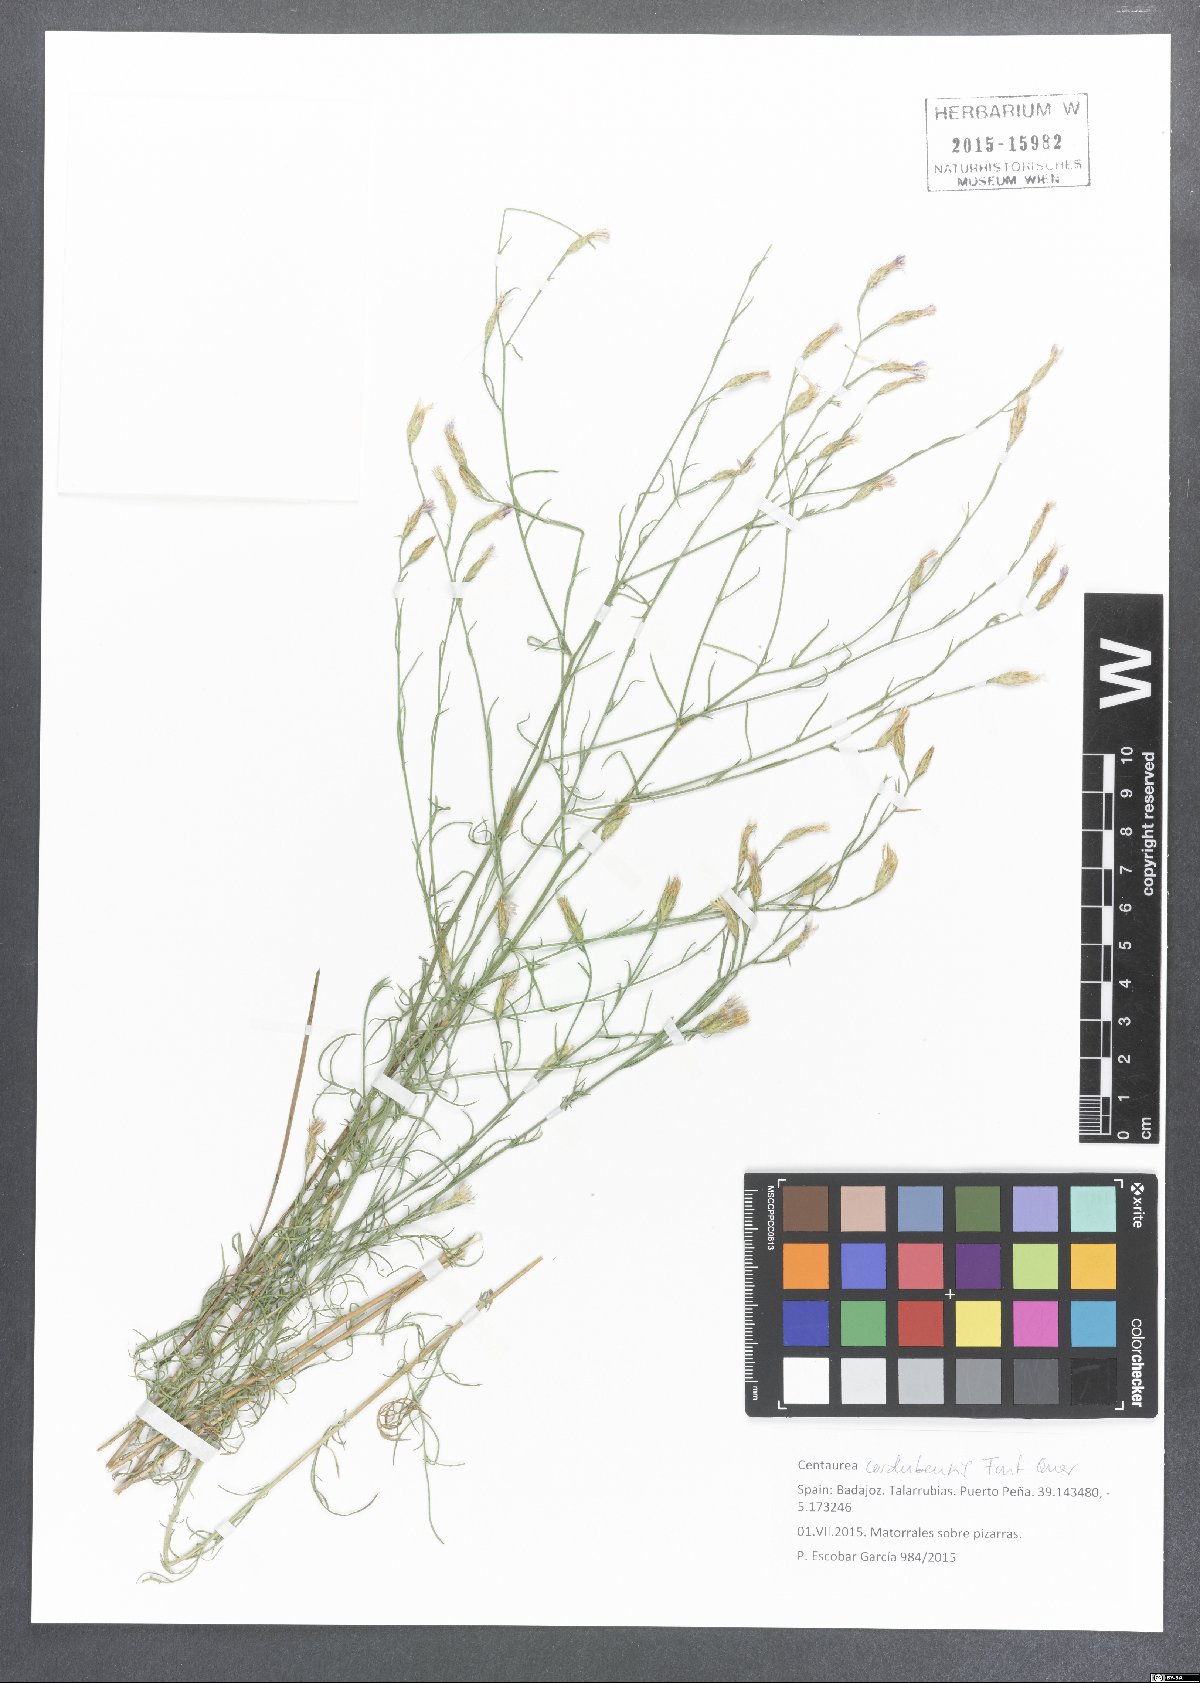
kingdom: Plantae
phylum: Tracheophyta
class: Magnoliopsida
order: Asterales
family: Asteraceae
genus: Centaurea
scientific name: Centaurea cordubensis
